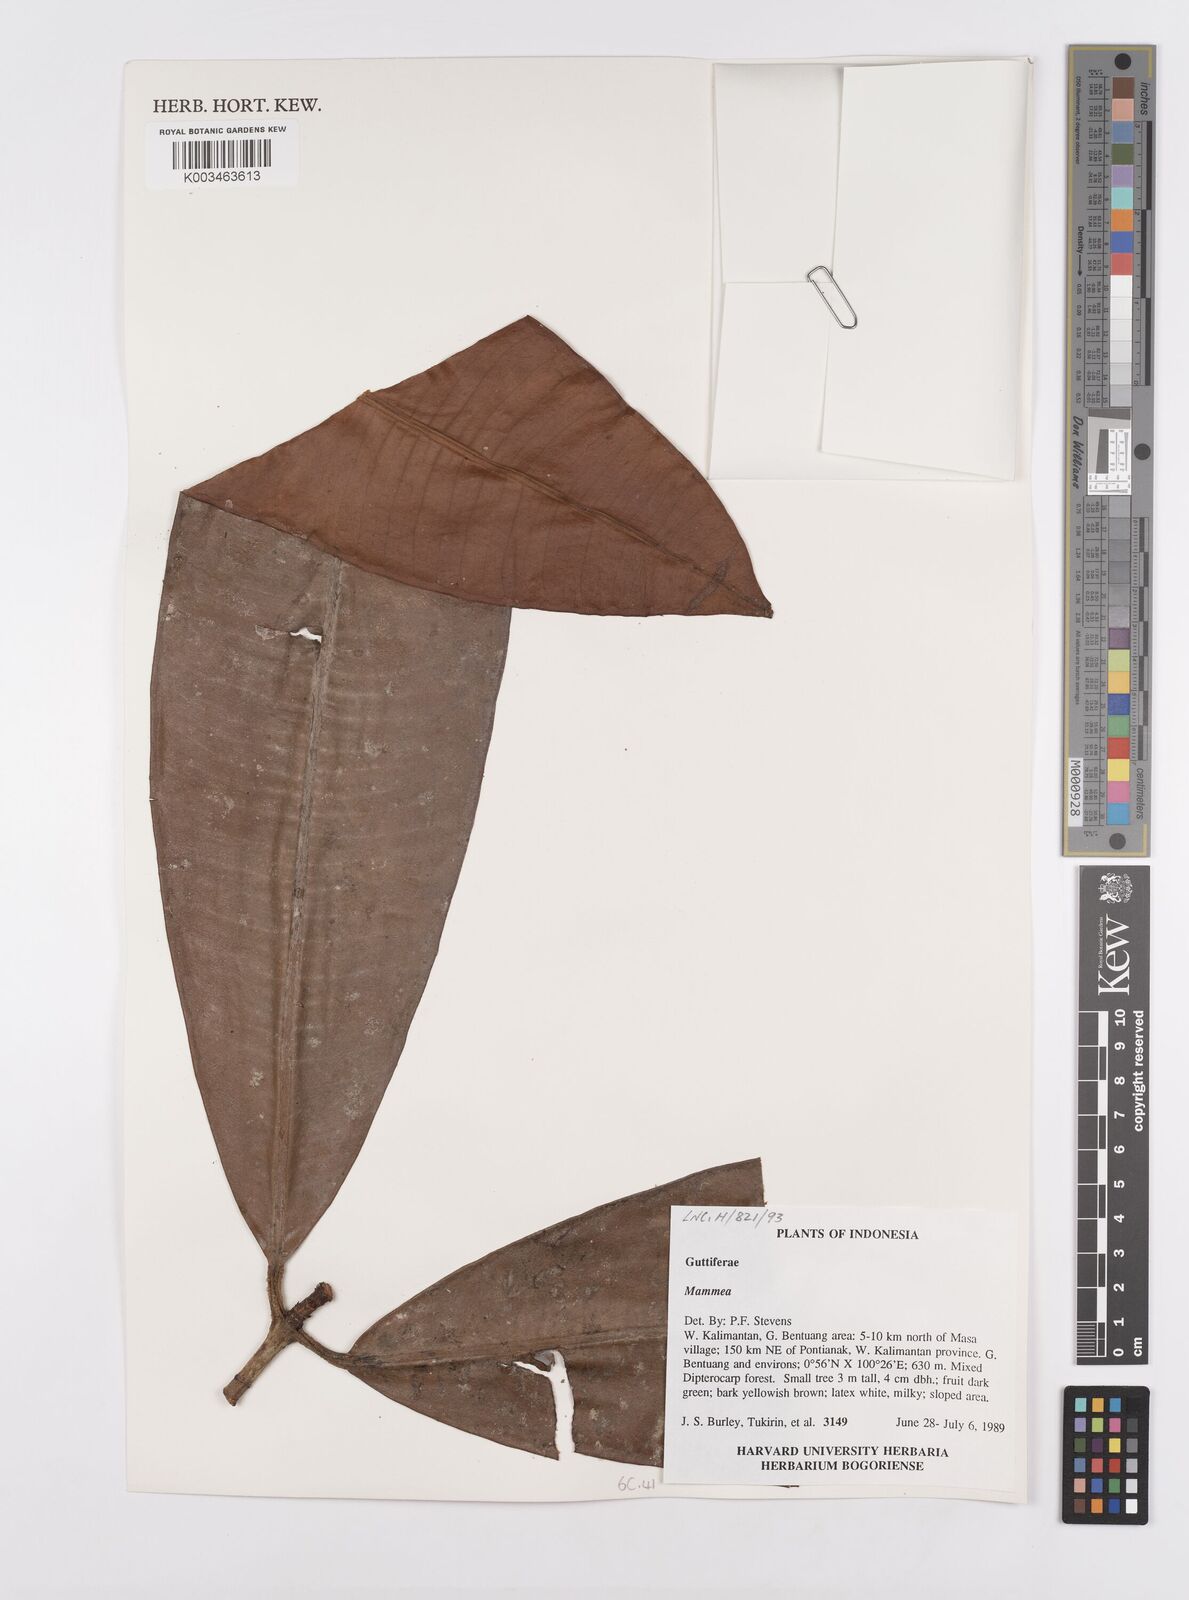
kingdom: Plantae
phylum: Tracheophyta
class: Magnoliopsida
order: Malpighiales
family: Calophyllaceae
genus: Mammea
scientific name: Mammea
